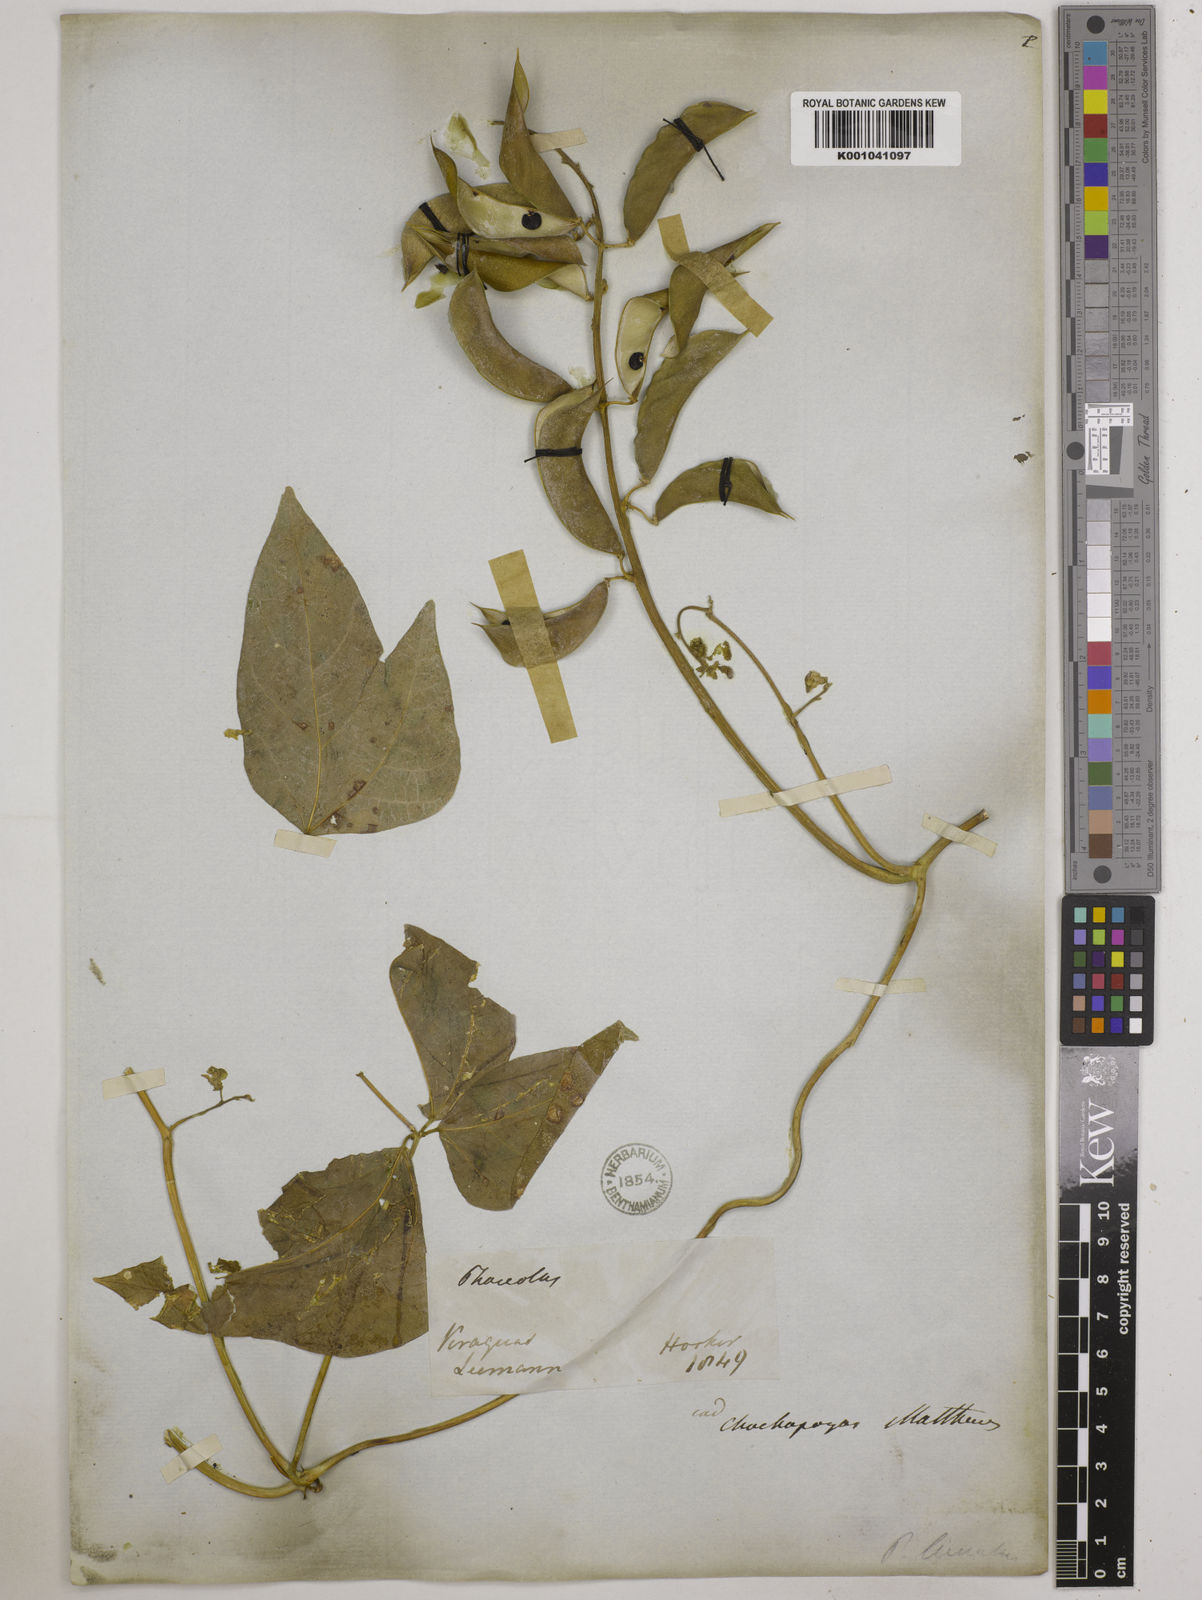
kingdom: Plantae
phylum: Tracheophyta
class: Magnoliopsida
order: Fabales
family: Fabaceae
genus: Phaseolus
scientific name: Phaseolus lunatus
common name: Sieva bean
